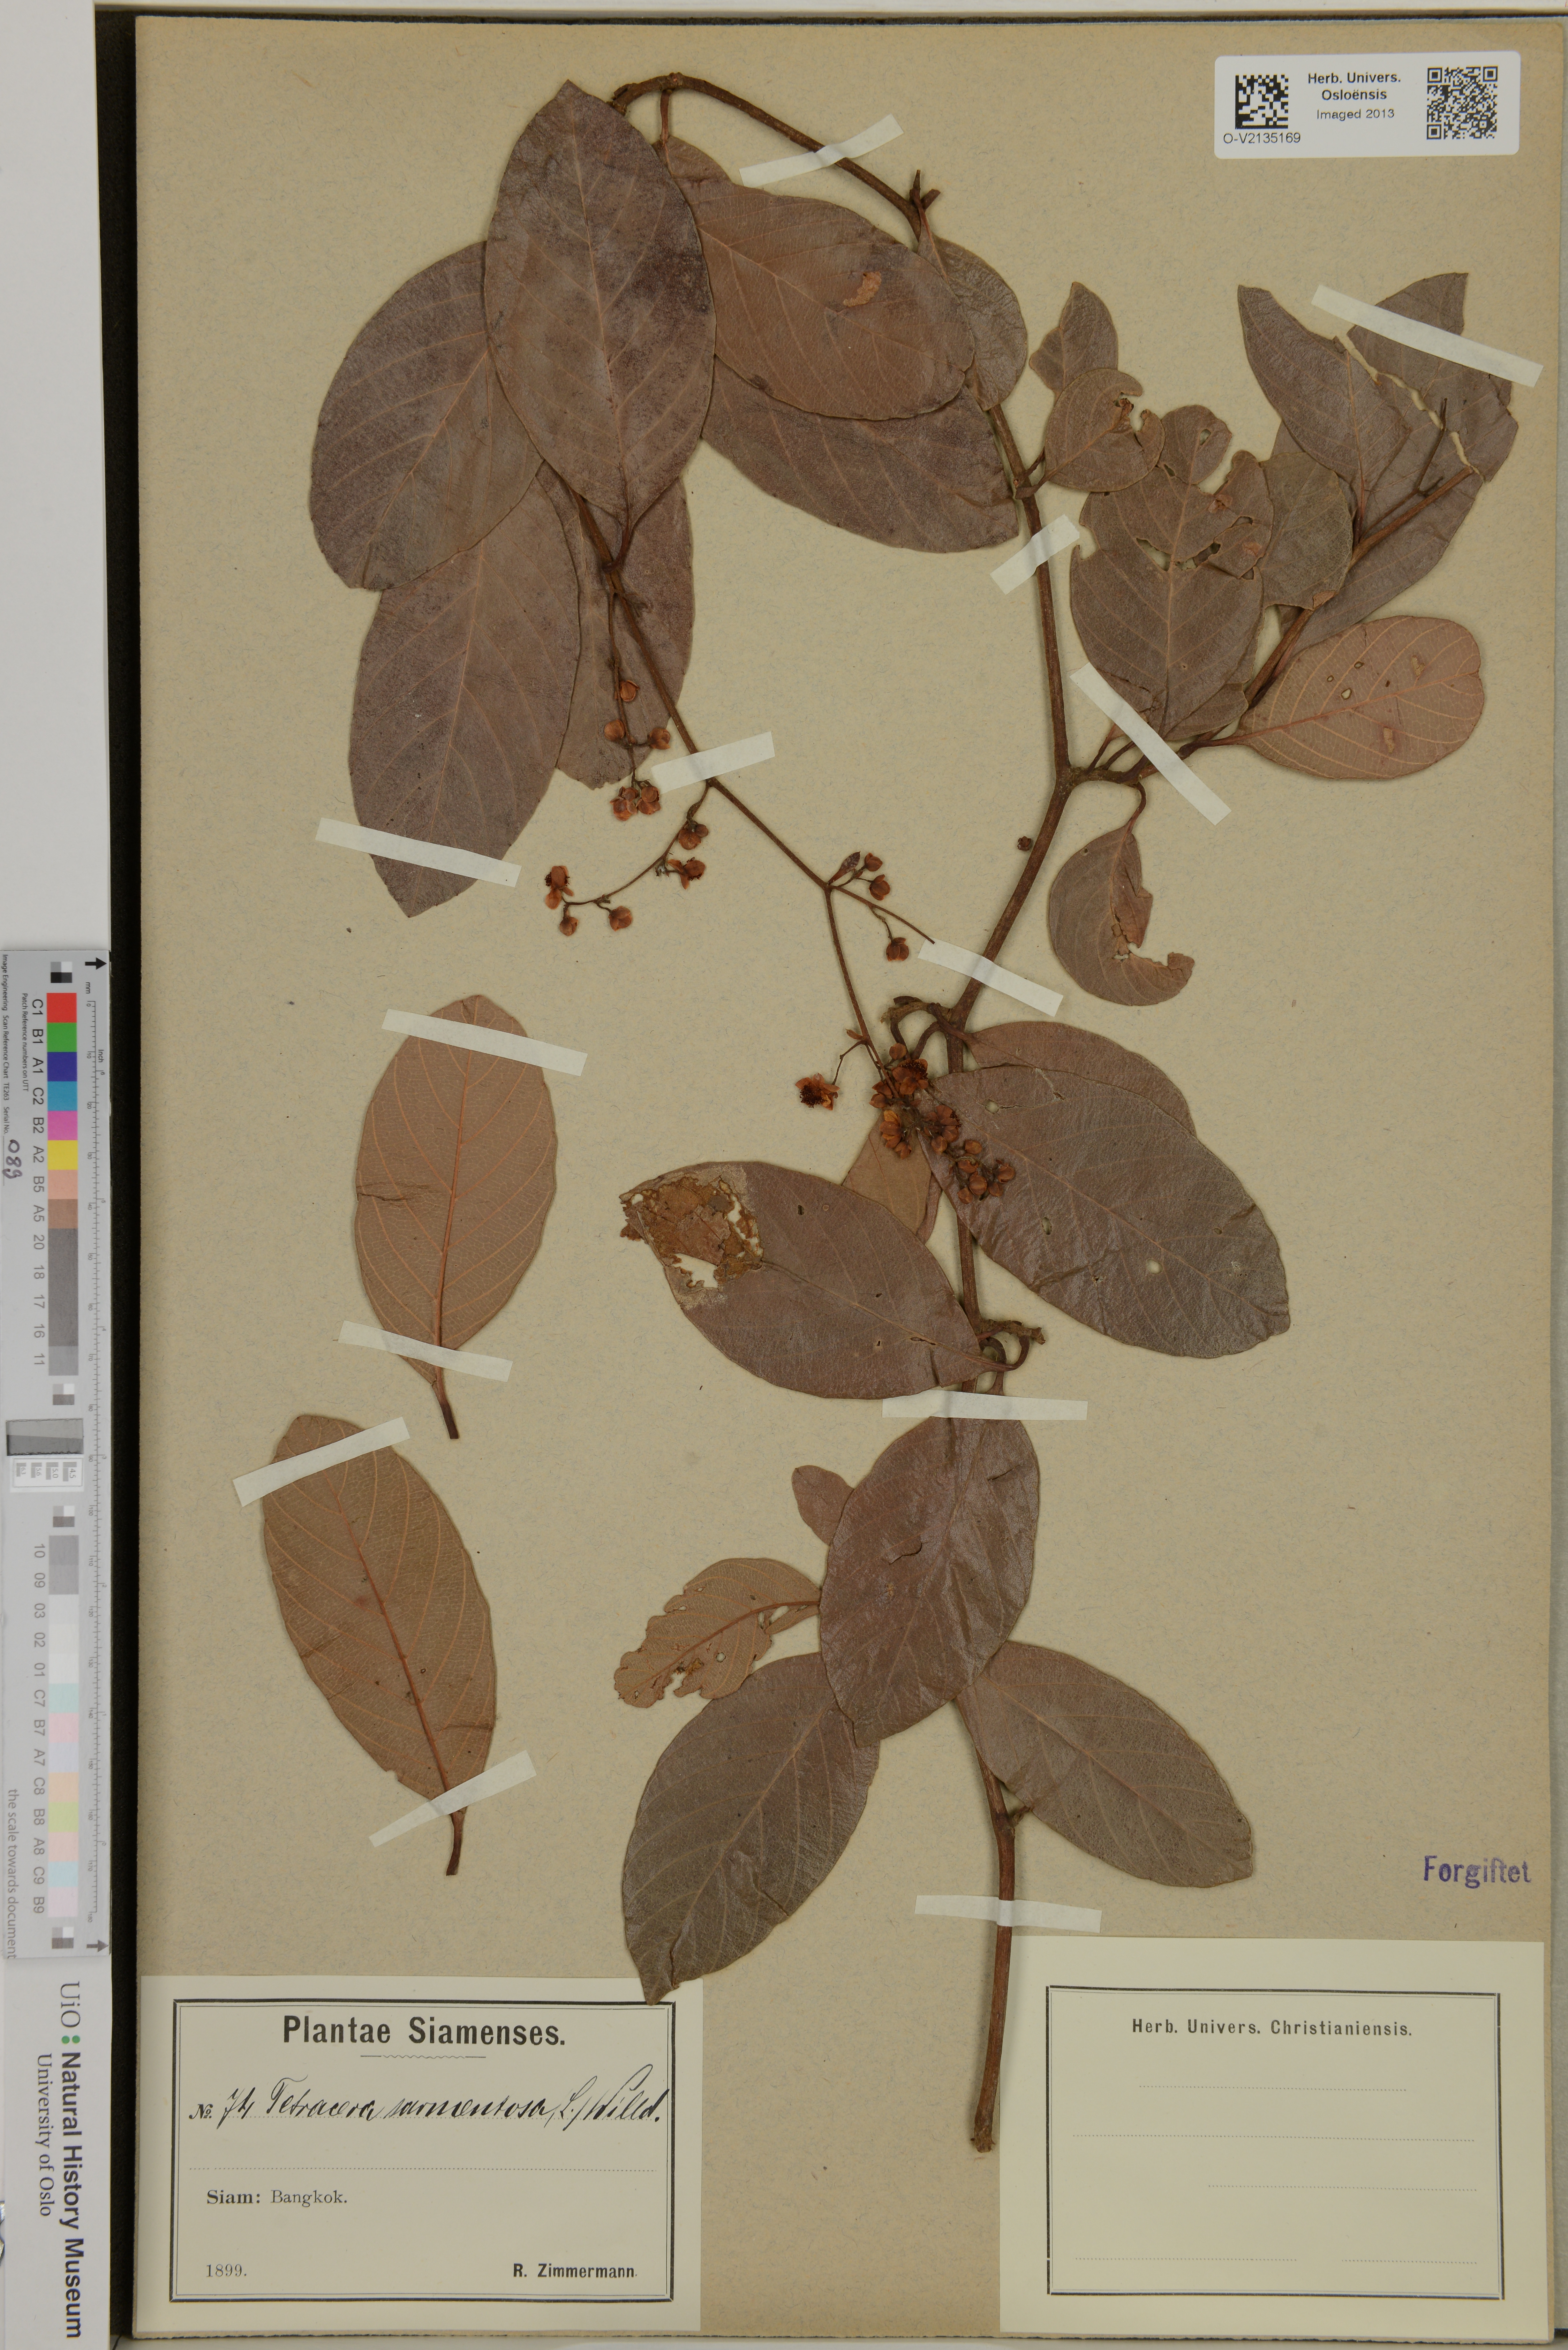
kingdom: Plantae
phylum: Tracheophyta
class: Magnoliopsida
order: Dilleniales
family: Dilleniaceae
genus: Tetracera
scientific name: Tetracera sarmentosa
